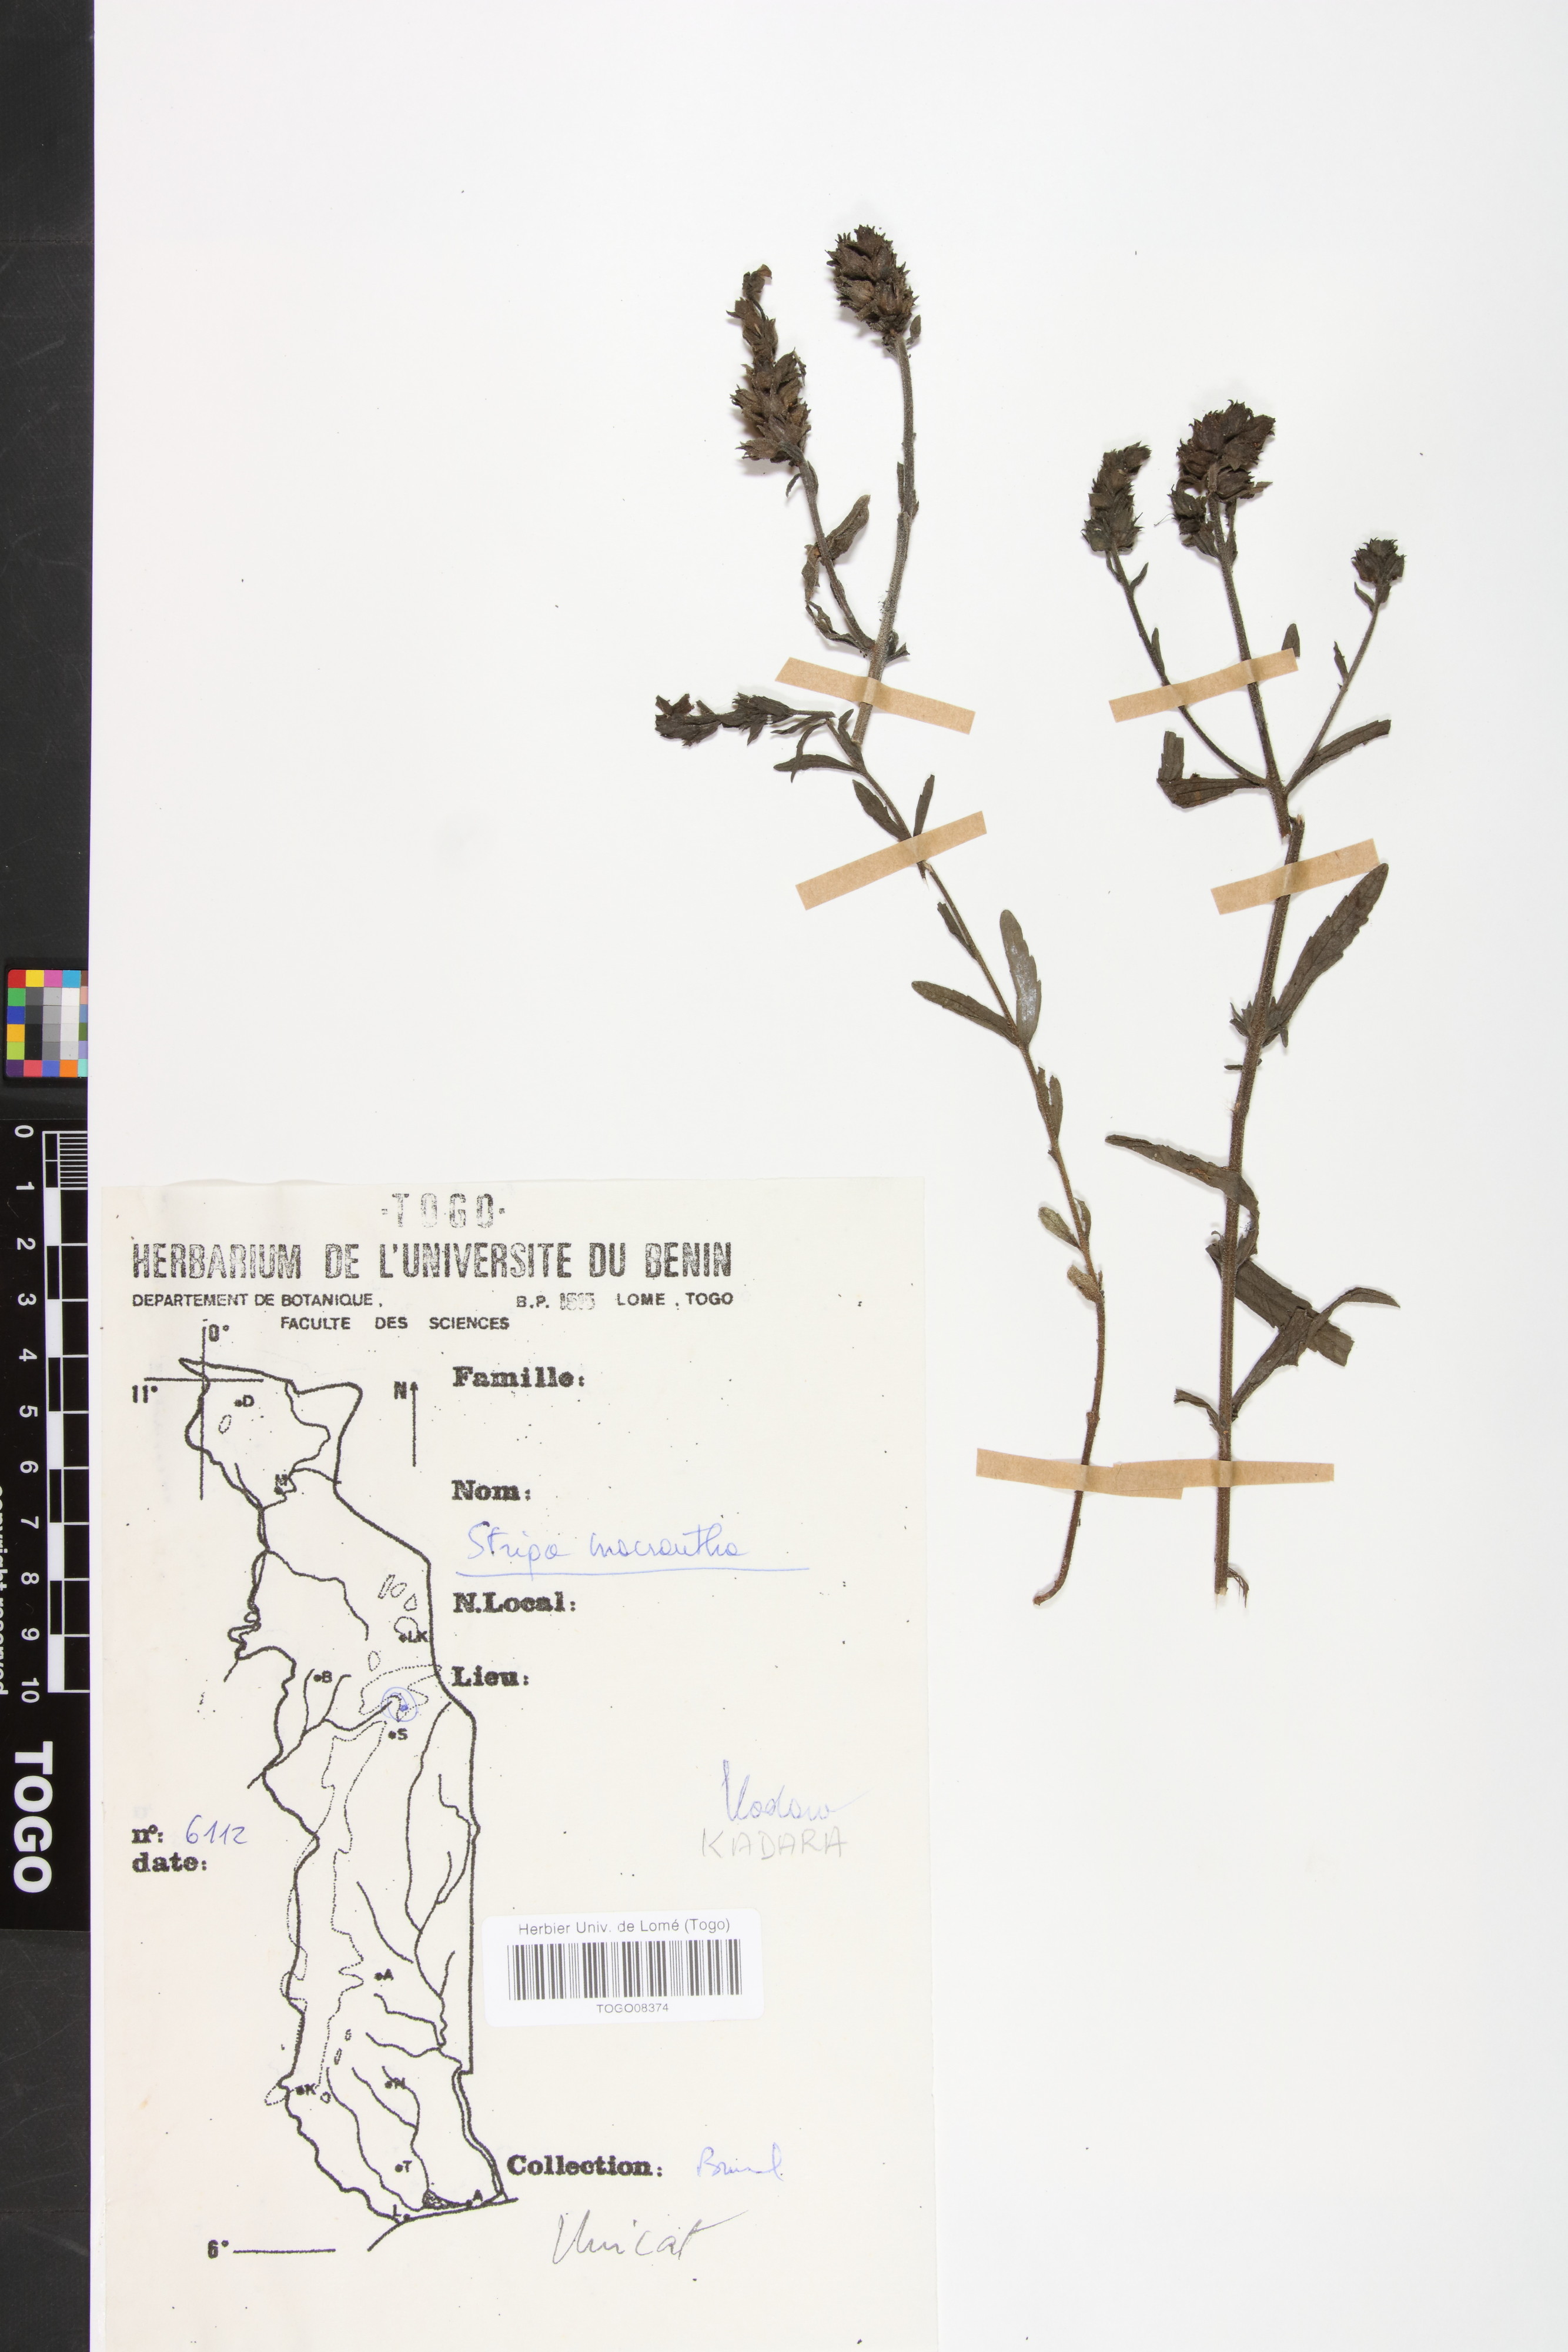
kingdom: Plantae
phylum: Tracheophyta
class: Magnoliopsida
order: Lamiales
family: Orobanchaceae
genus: Striga
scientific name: Striga macrantha
